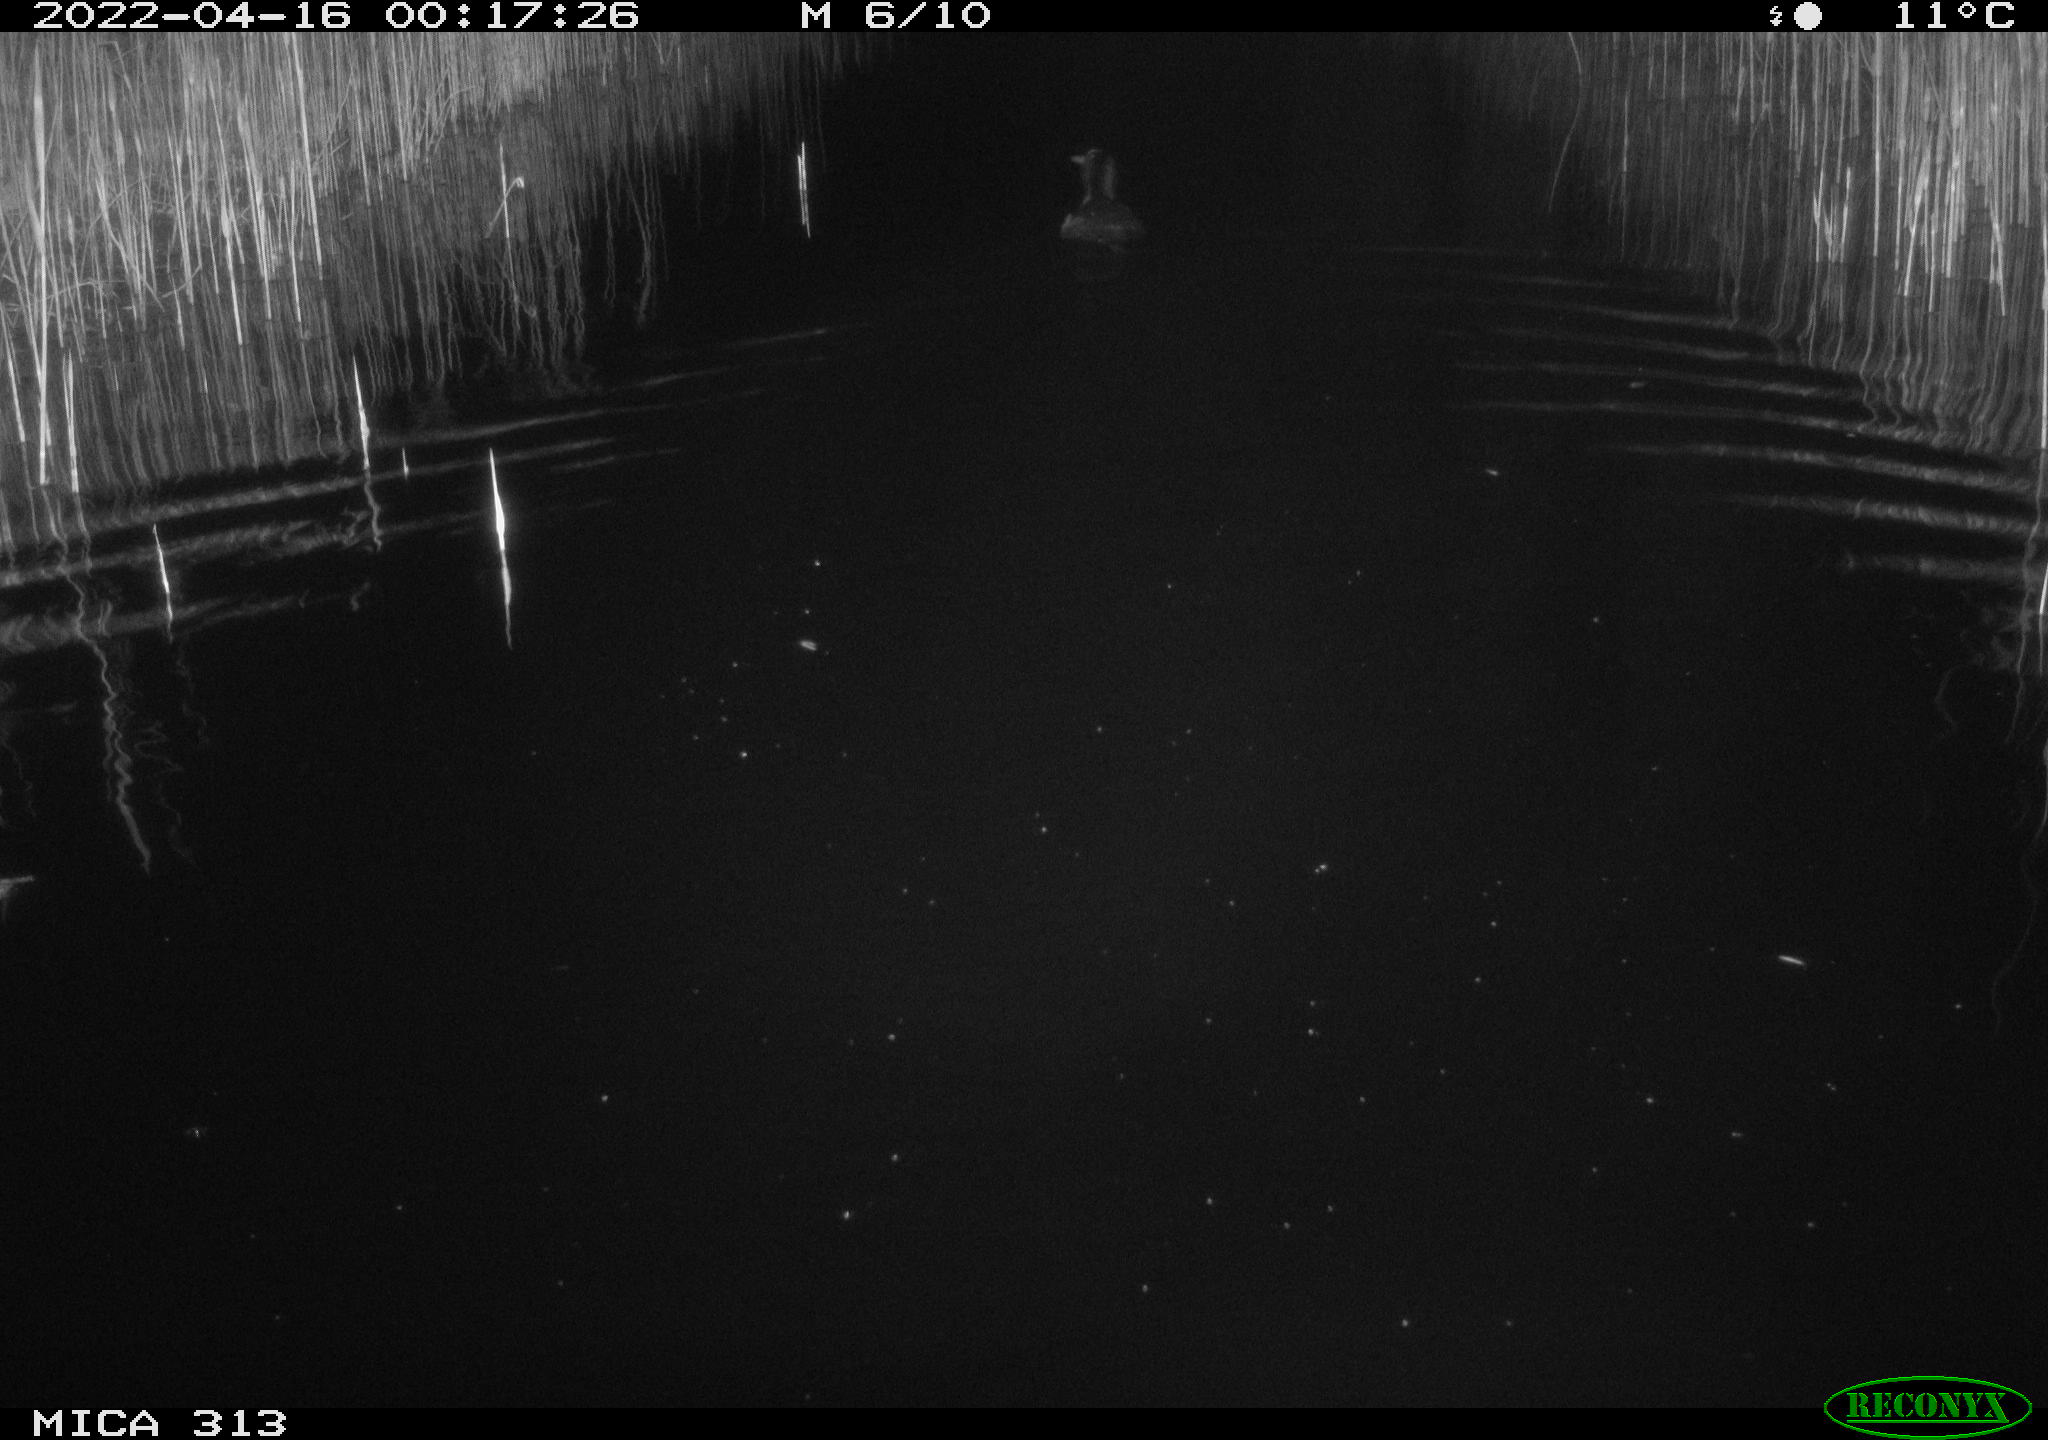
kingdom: Animalia
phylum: Chordata
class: Aves
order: Gruiformes
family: Rallidae
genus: Fulica
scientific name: Fulica atra
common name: Eurasian coot
